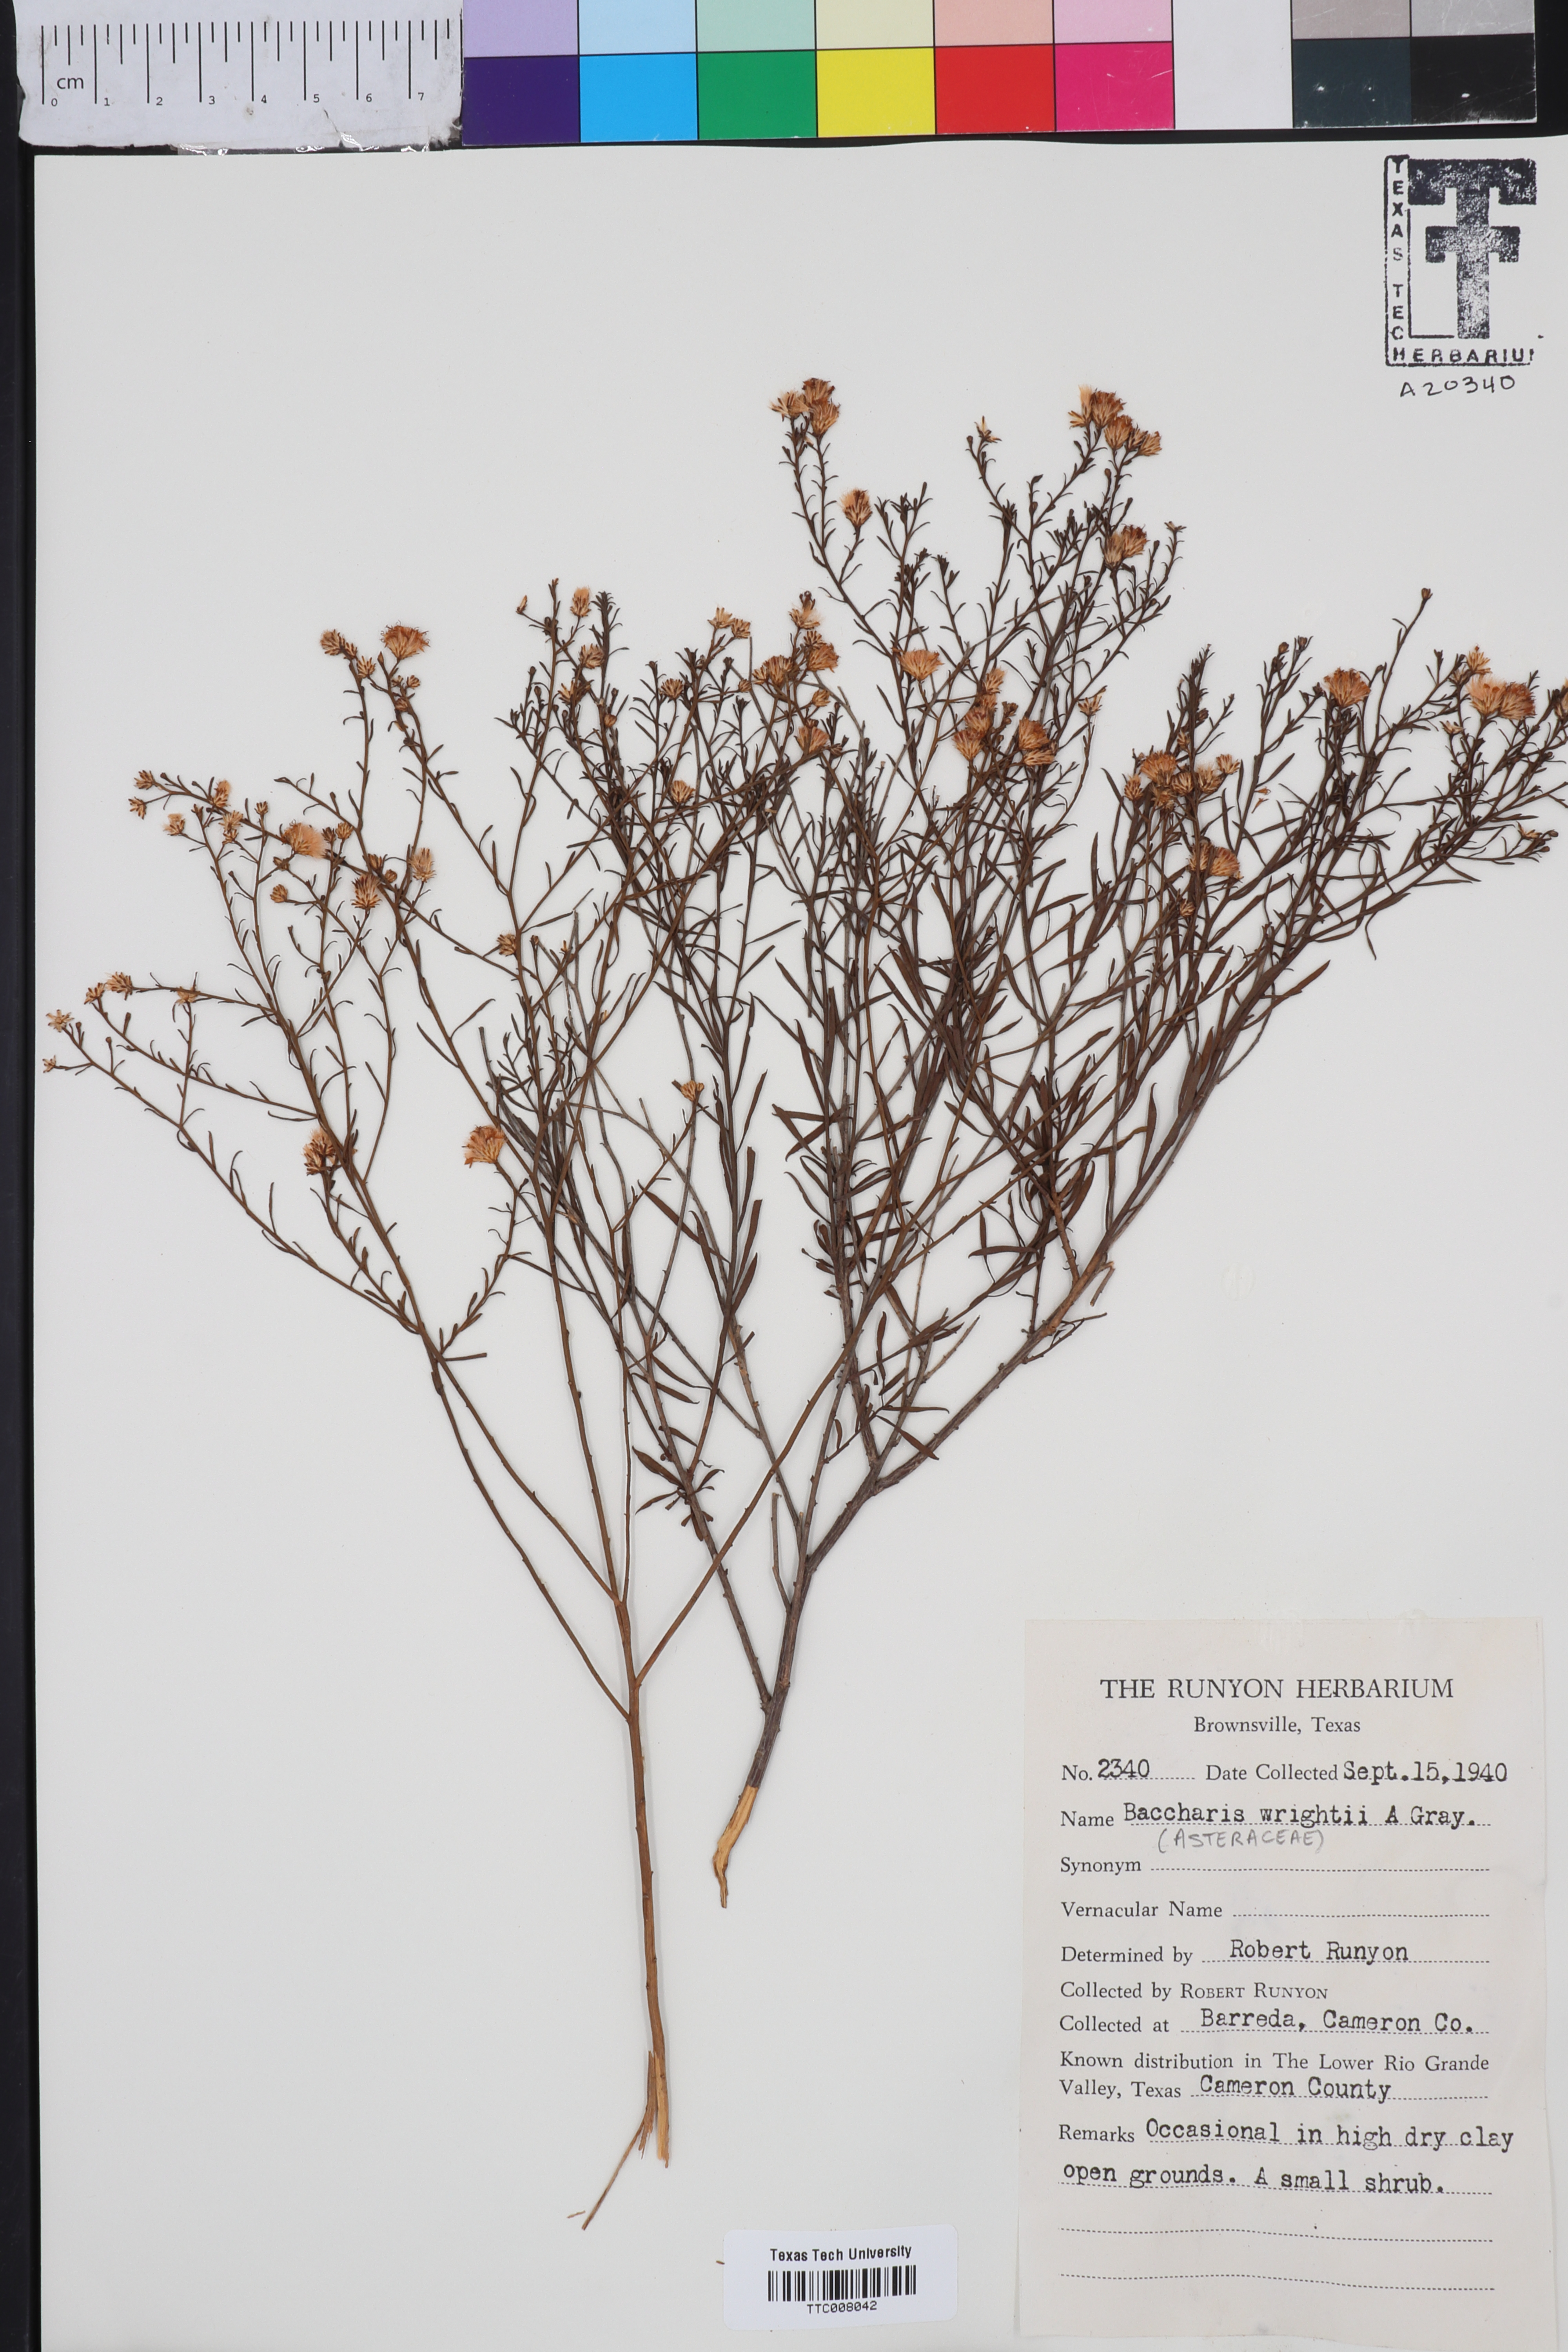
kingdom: Plantae
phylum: Tracheophyta
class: Magnoliopsida
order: Asterales
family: Asteraceae
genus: Baccharis
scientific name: Baccharis wrightii
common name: Wright's baccharis
